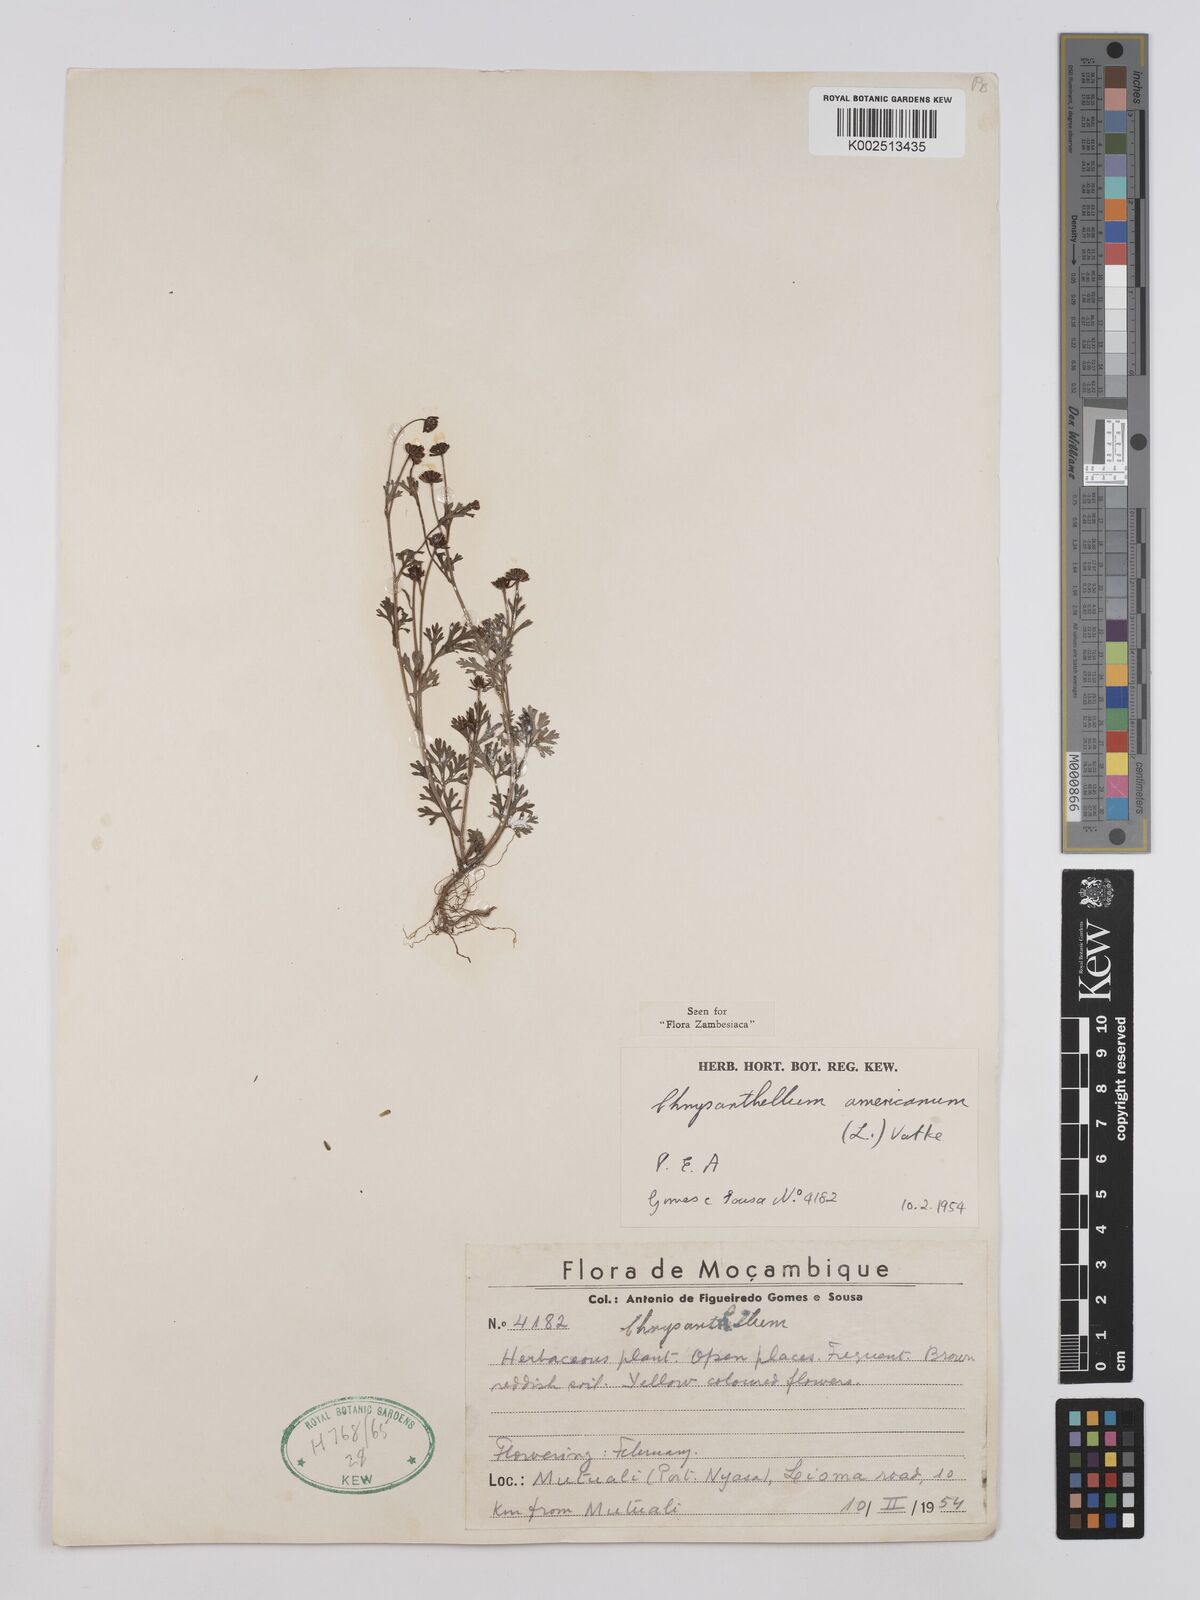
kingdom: Plantae
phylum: Tracheophyta
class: Magnoliopsida
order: Asterales
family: Asteraceae
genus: Chrysanthellum
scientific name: Chrysanthellum indicum
